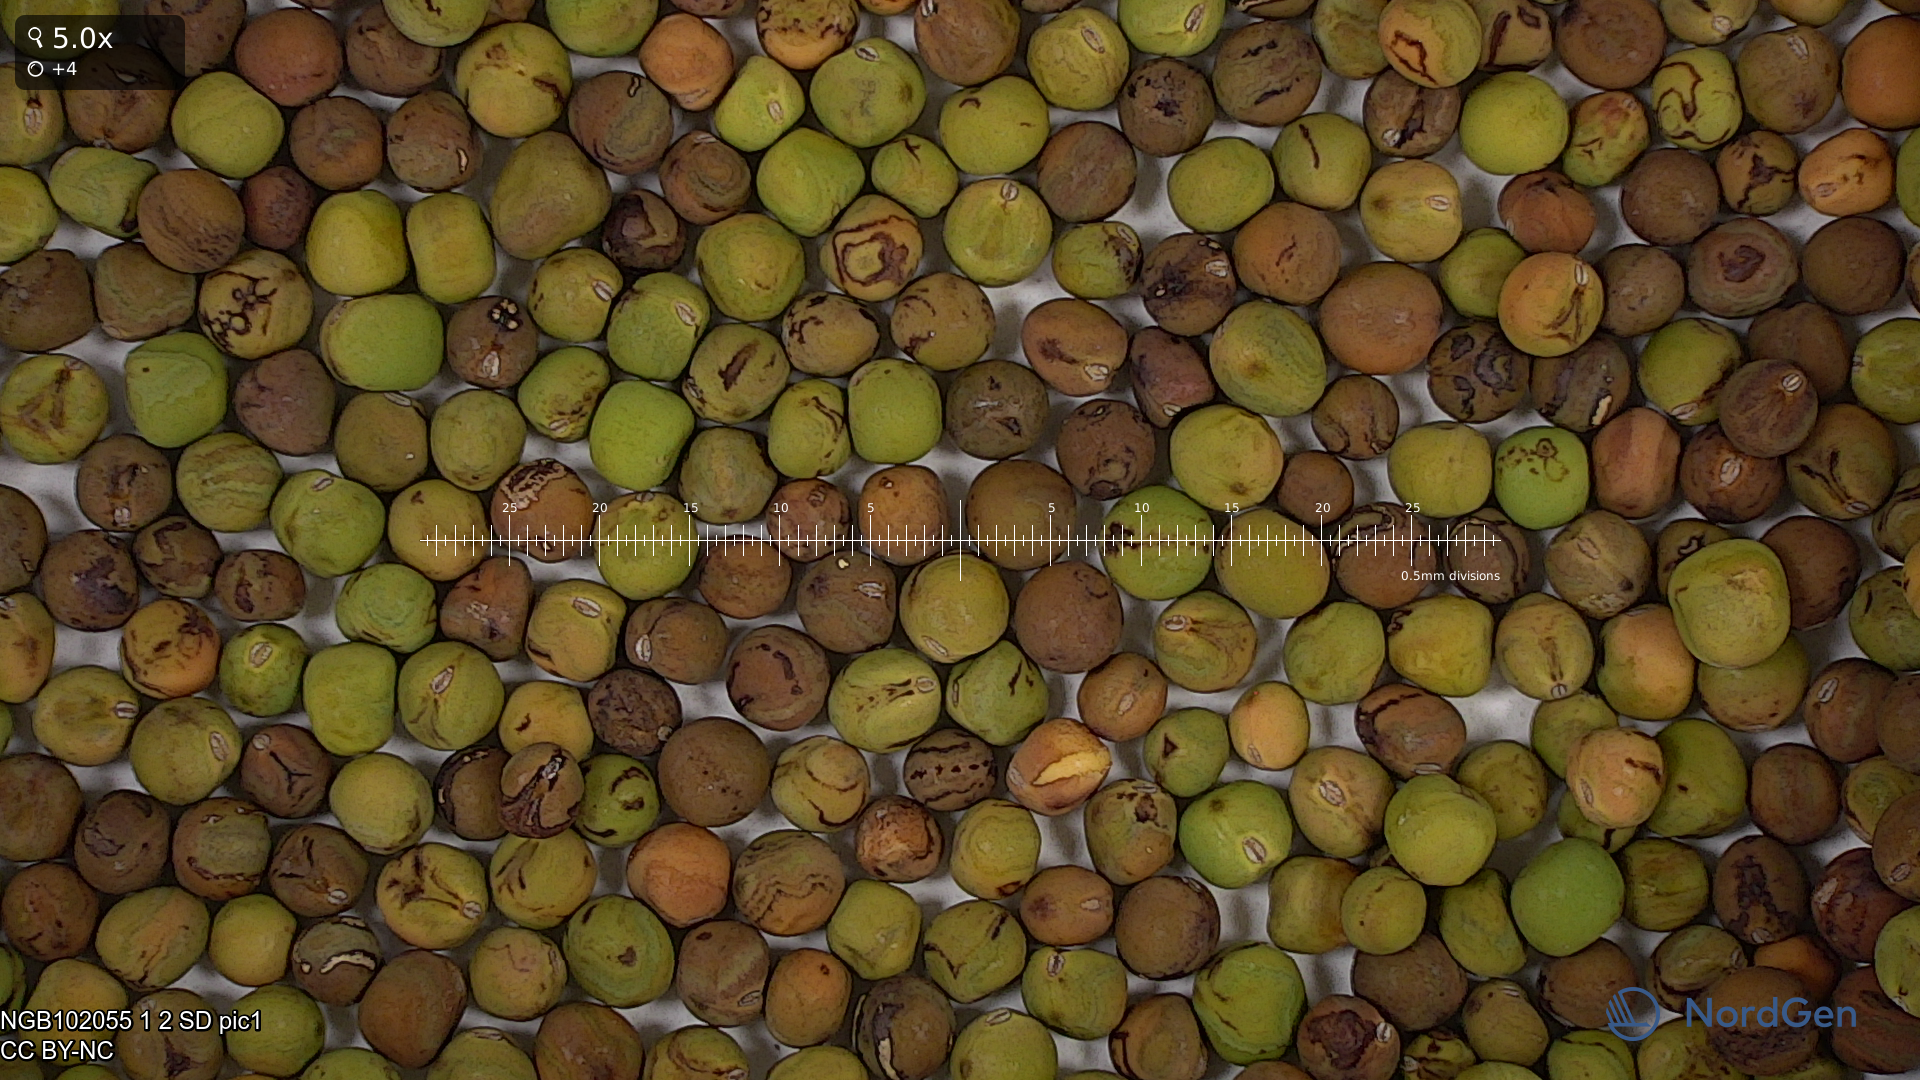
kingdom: Plantae
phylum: Tracheophyta
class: Magnoliopsida
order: Fabales
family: Fabaceae
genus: Lathyrus
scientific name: Lathyrus oleraceus
